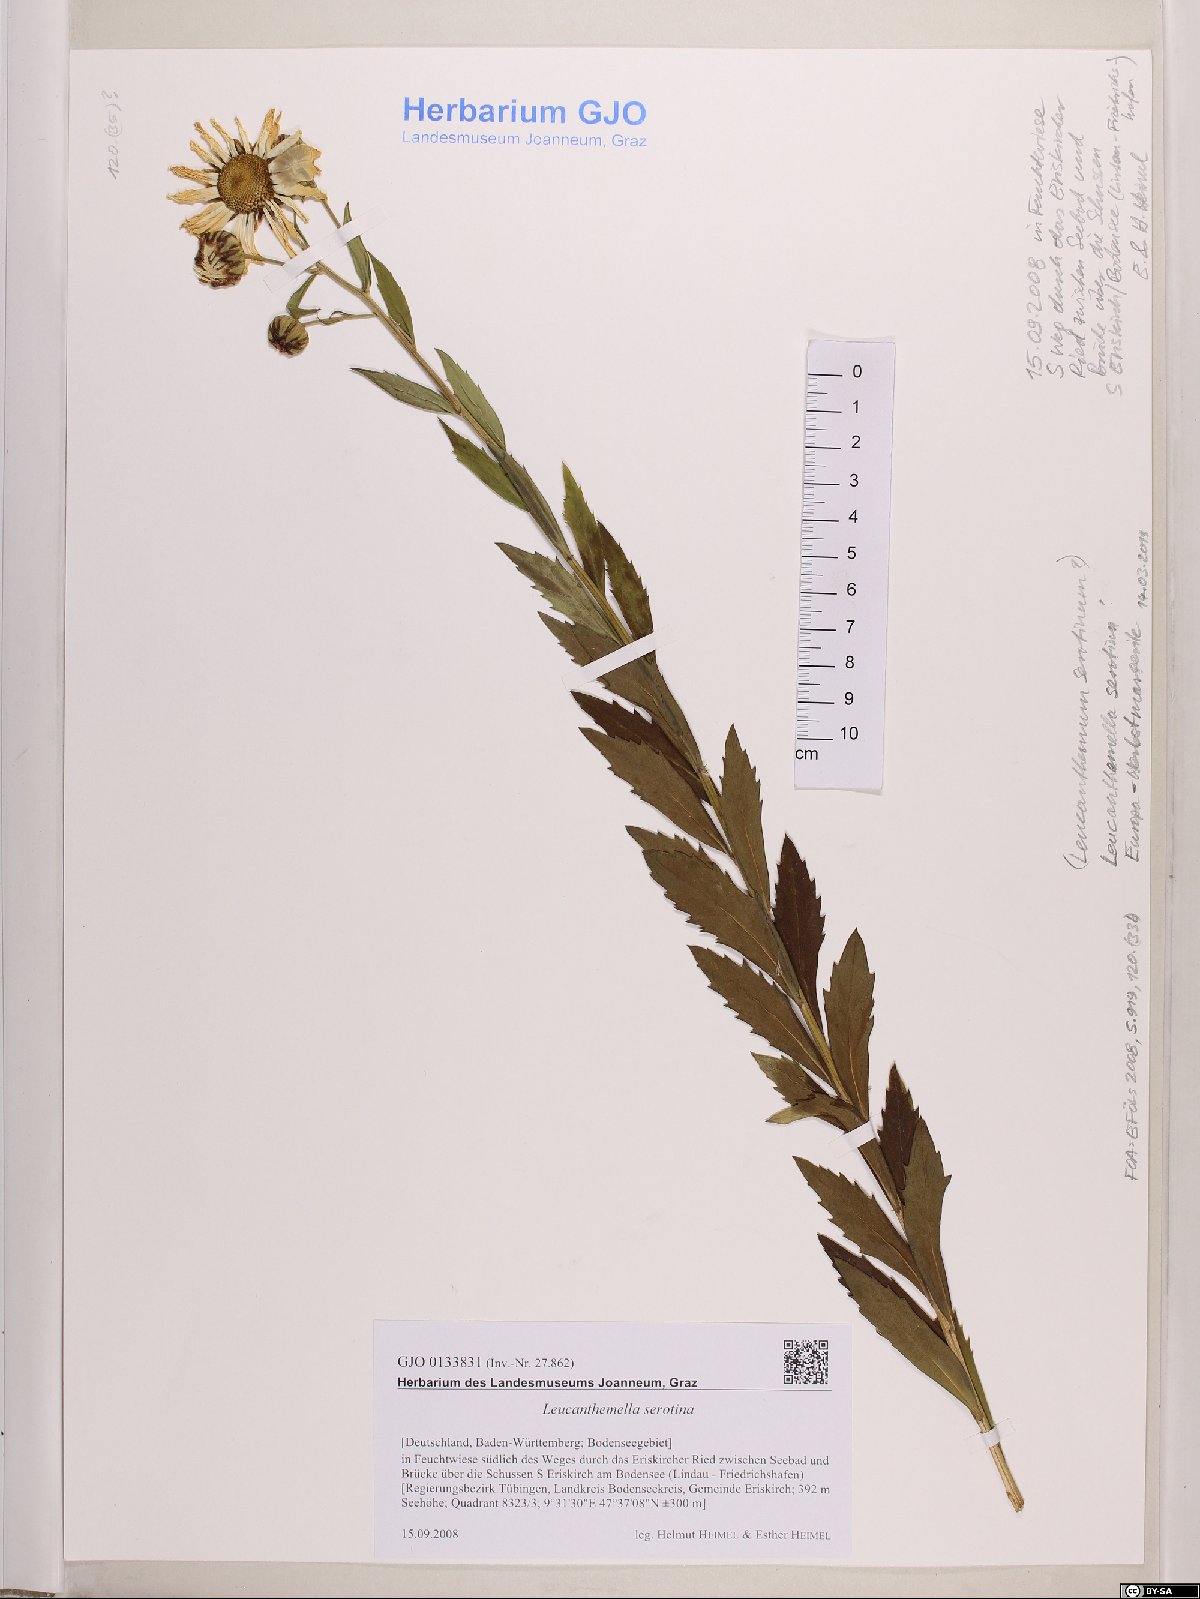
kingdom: Plantae
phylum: Tracheophyta
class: Magnoliopsida
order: Asterales
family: Asteraceae
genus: Leucanthemella
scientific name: Leucanthemella serotina
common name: Autumn oxeye
